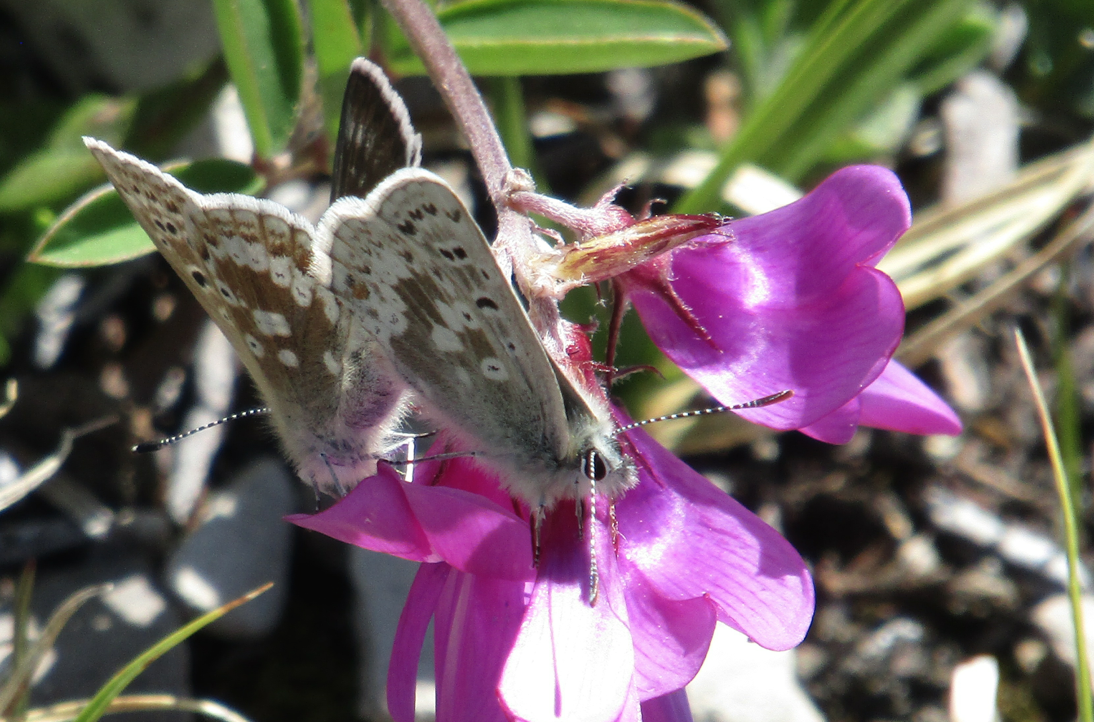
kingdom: Animalia
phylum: Arthropoda
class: Insecta
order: Lepidoptera
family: Lycaenidae
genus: Agriades
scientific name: Agriades glandon
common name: Arctic Blue
